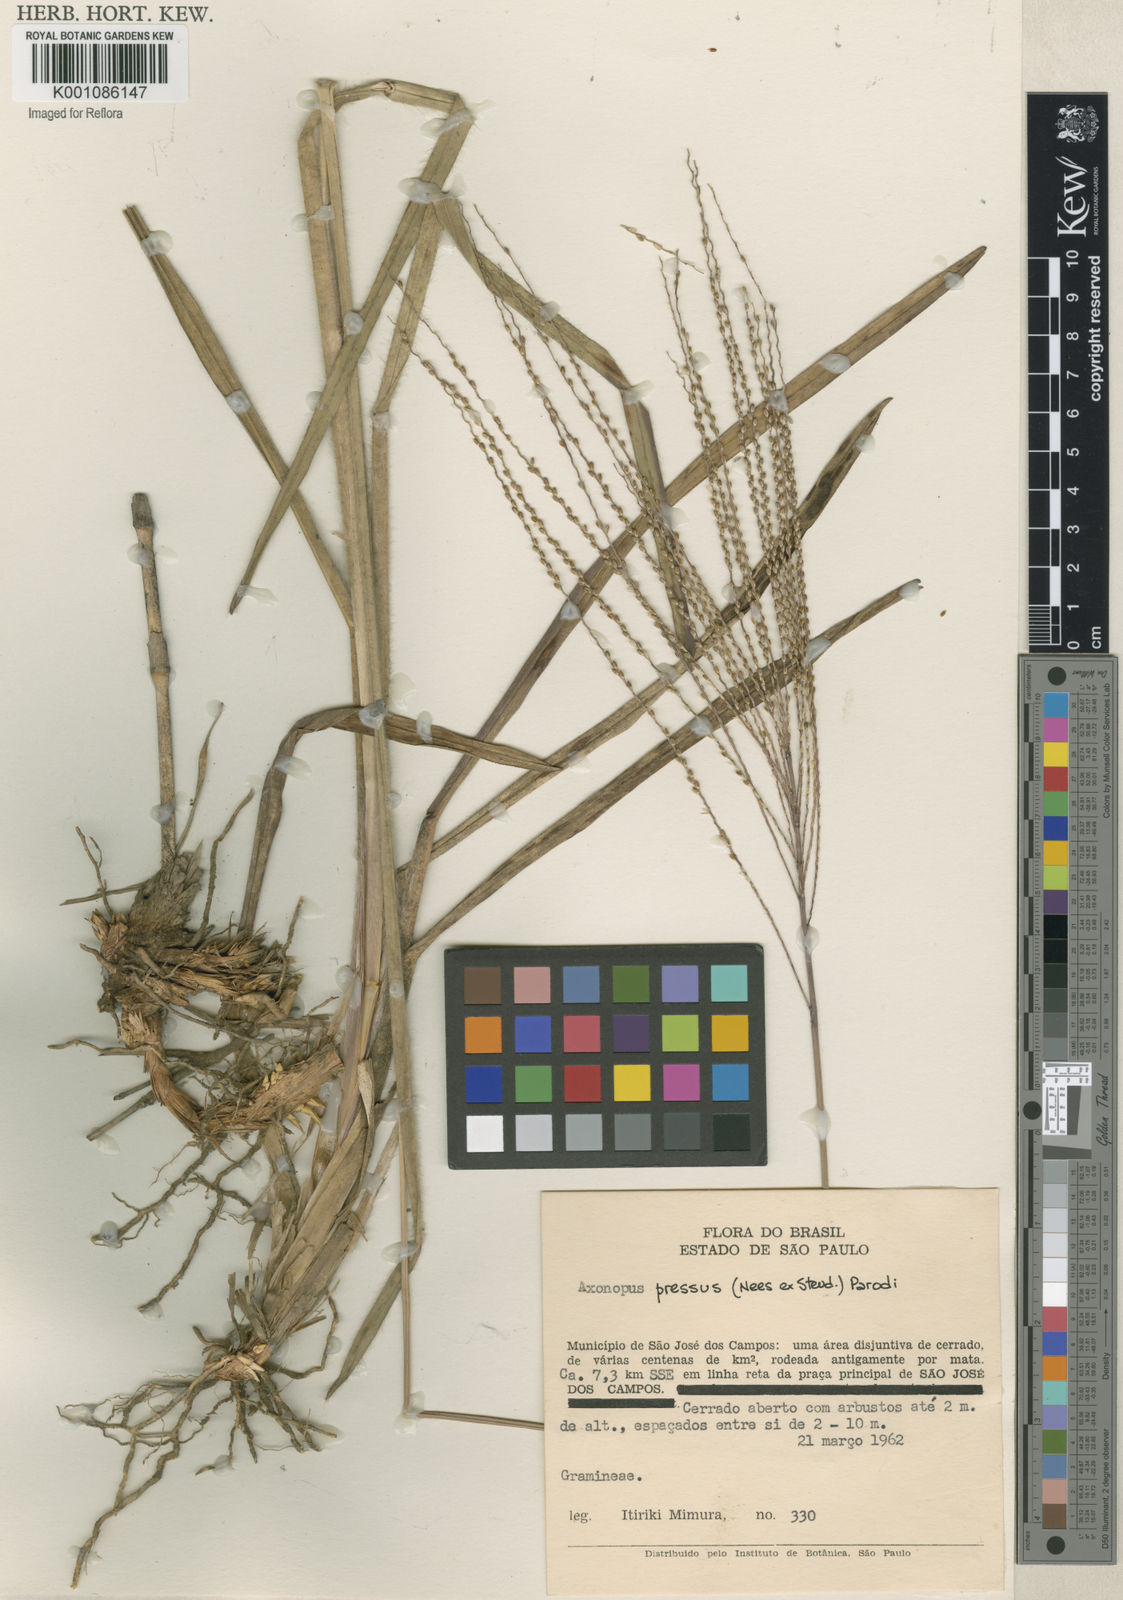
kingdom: Plantae
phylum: Tracheophyta
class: Liliopsida
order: Poales
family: Poaceae
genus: Axonopus
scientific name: Axonopus pressus
